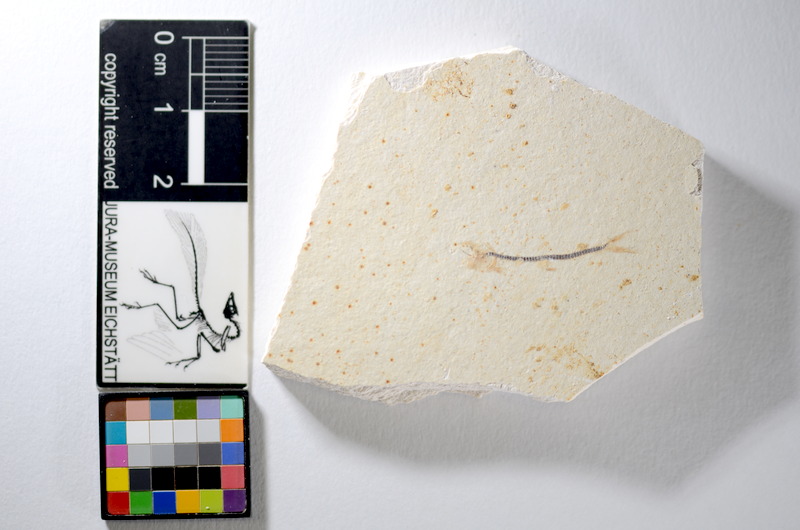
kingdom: Animalia
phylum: Chordata
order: Salmoniformes
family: Orthogonikleithridae
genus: Orthogonikleithrus
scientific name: Orthogonikleithrus hoelli
